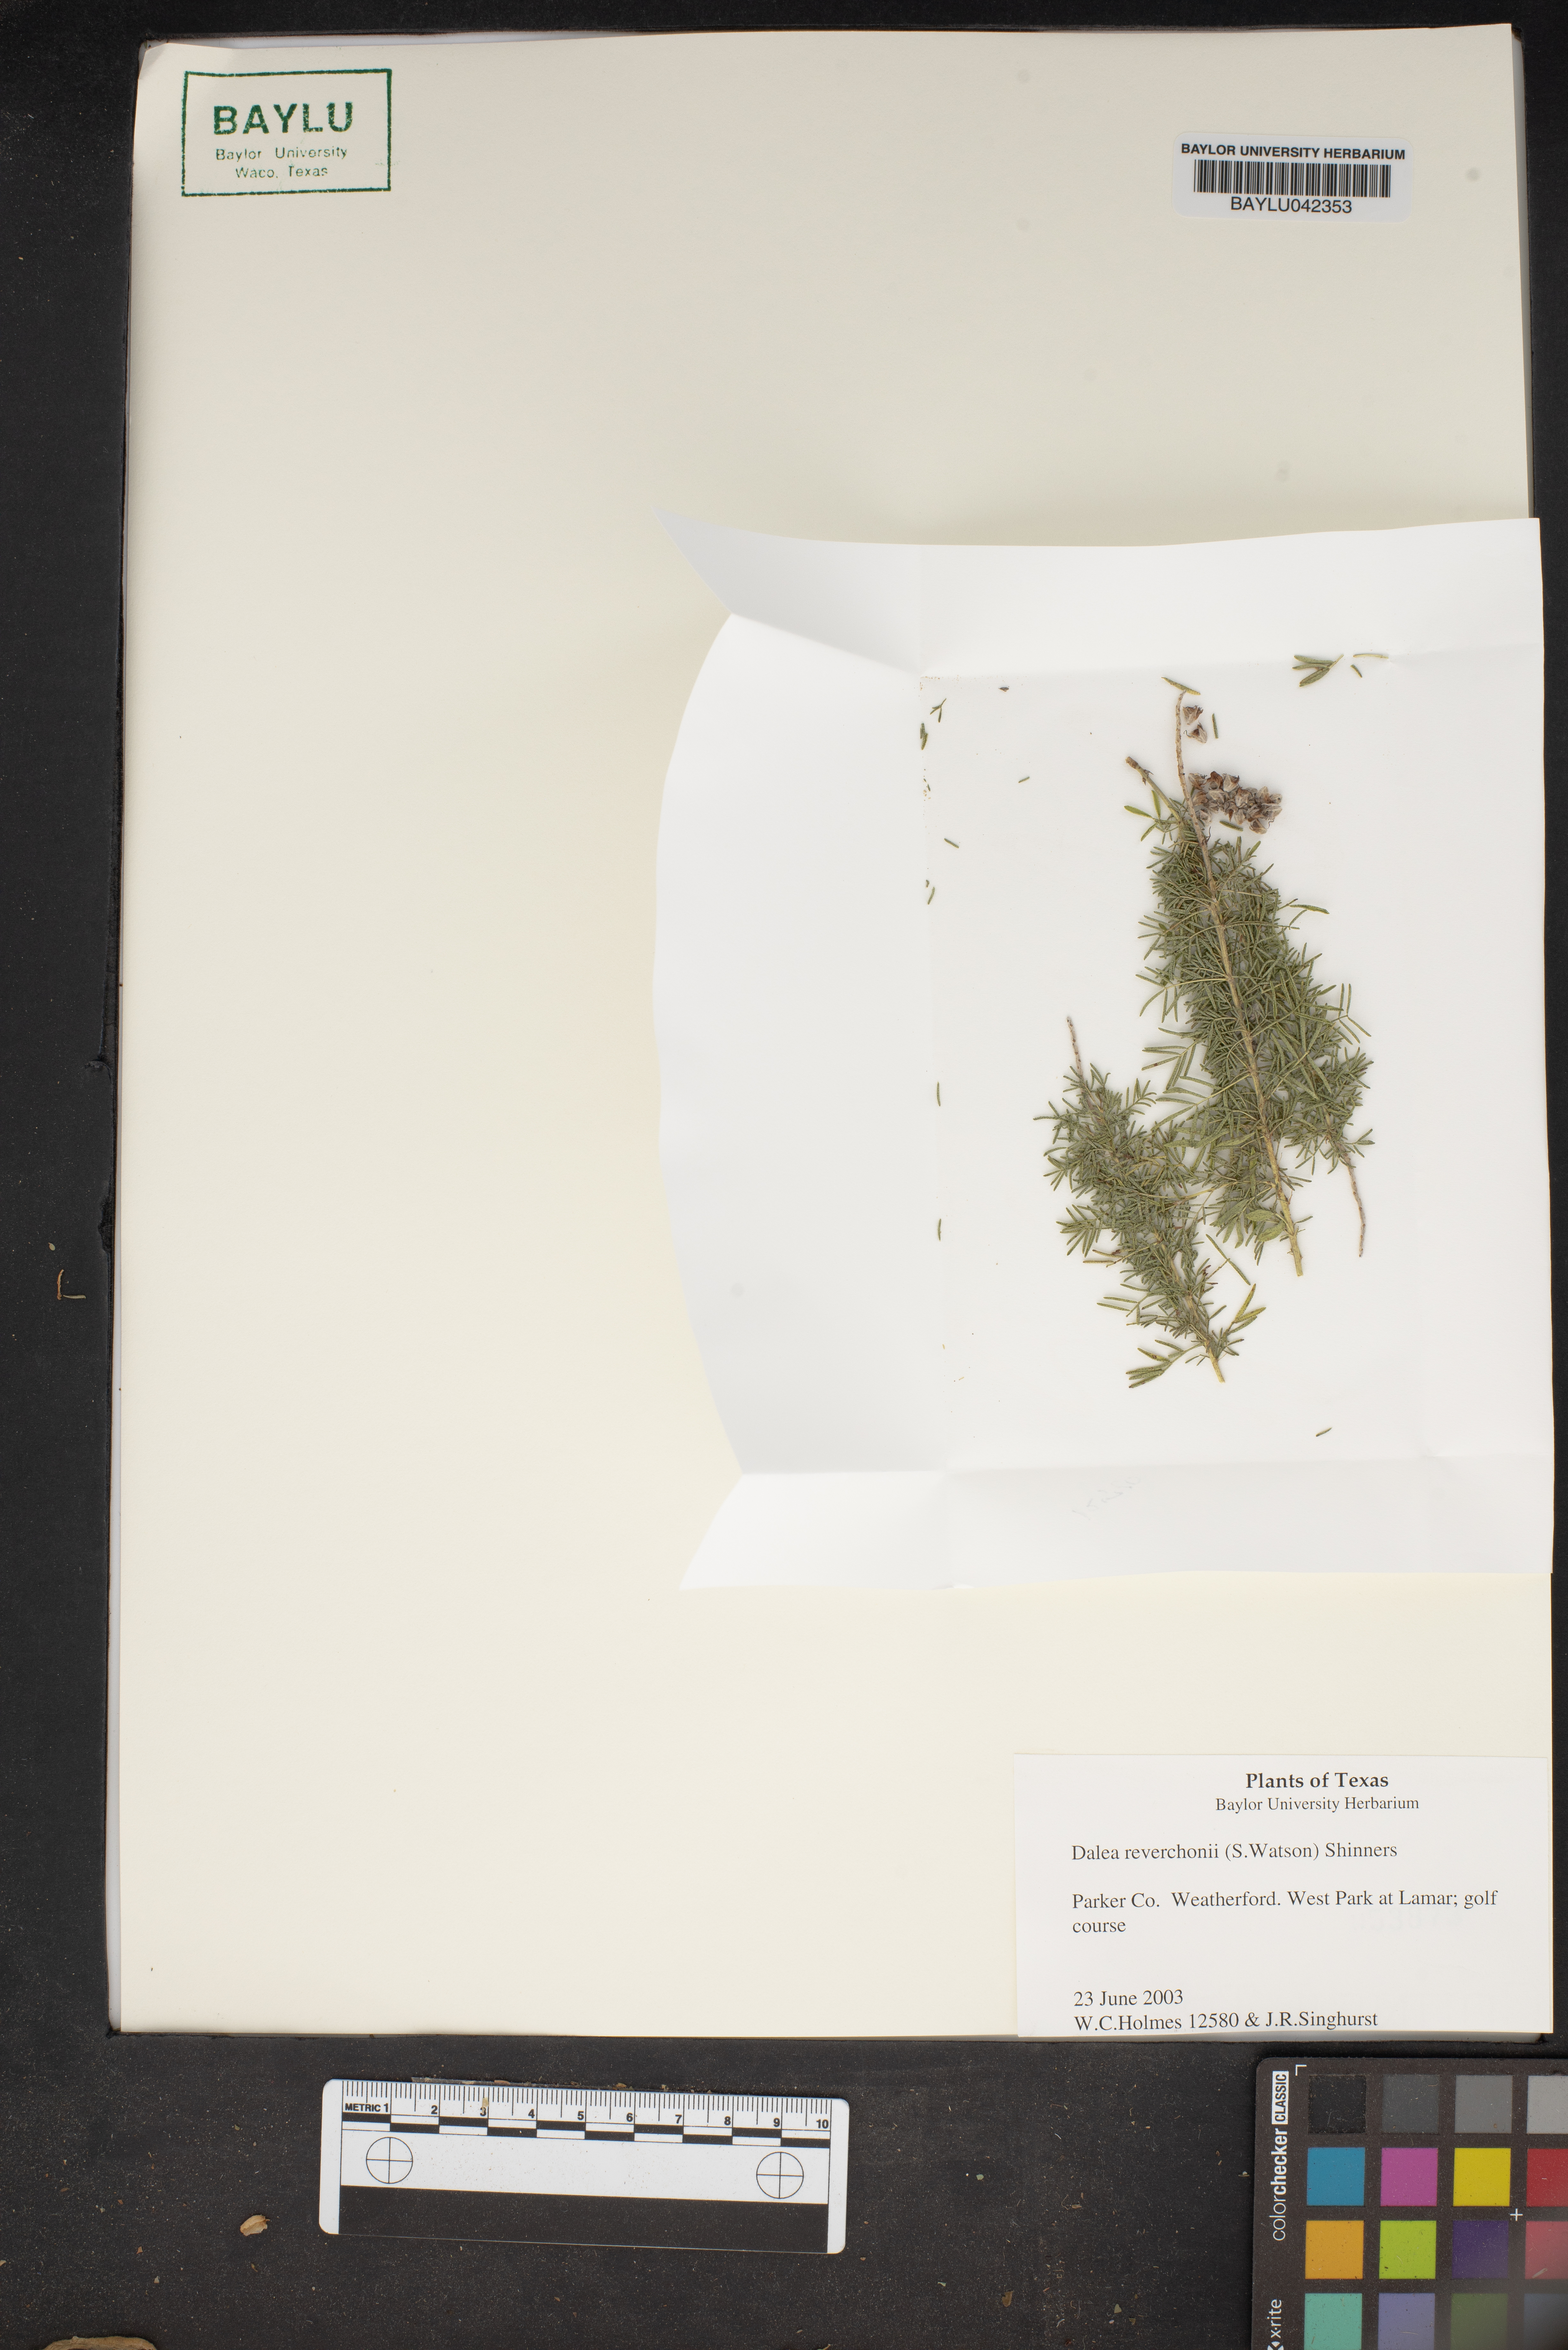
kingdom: Plantae
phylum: Tracheophyta
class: Magnoliopsida
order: Fabales
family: Fabaceae
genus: Dalea
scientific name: Dalea reverchonii
